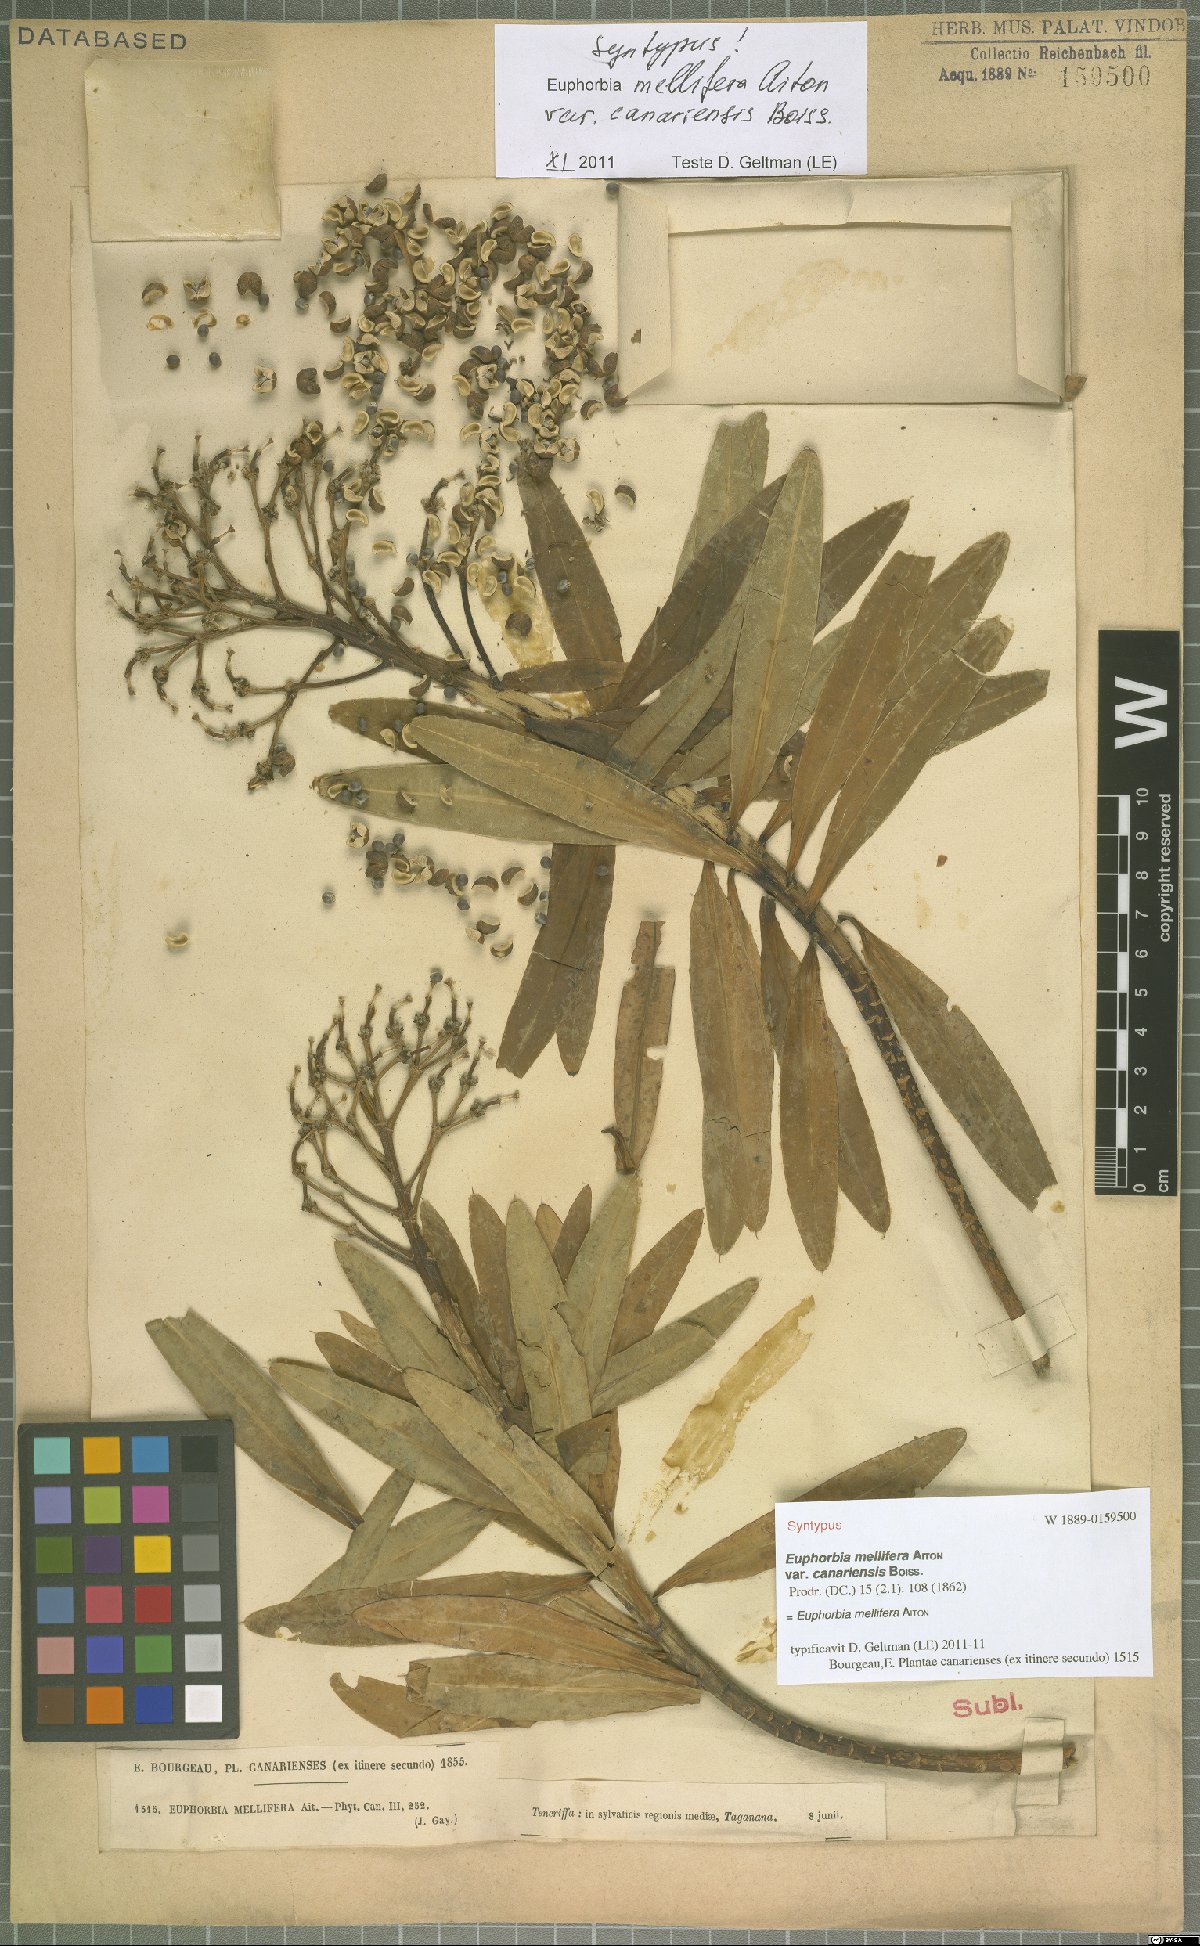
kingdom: Plantae
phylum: Tracheophyta
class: Magnoliopsida
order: Malpighiales
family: Euphorbiaceae
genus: Euphorbia
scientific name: Euphorbia mellifera
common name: Canary spurge
